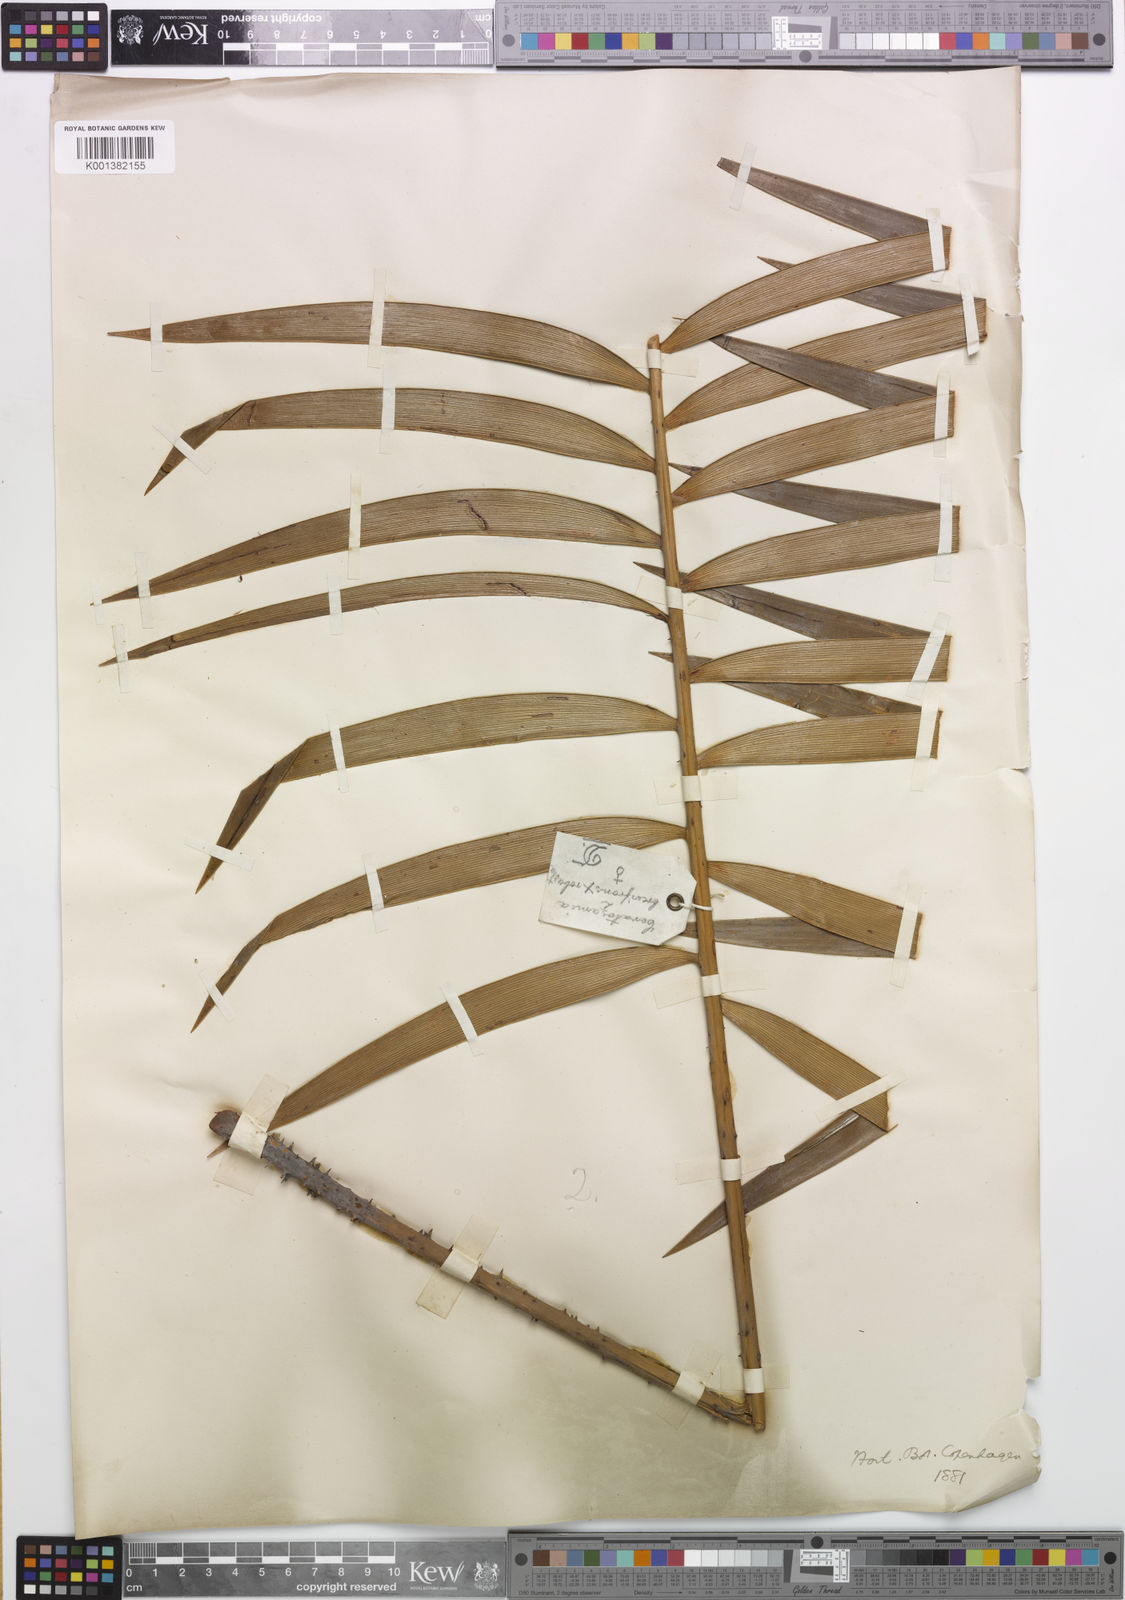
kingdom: Plantae
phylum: Tracheophyta
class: Cycadopsida
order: Cycadales
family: Zamiaceae
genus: Ceratozamia
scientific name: Ceratozamia brevifrons
